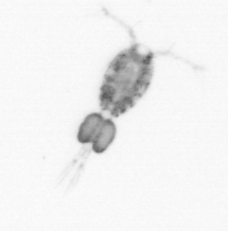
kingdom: Animalia
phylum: Arthropoda
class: Copepoda
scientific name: Copepoda
